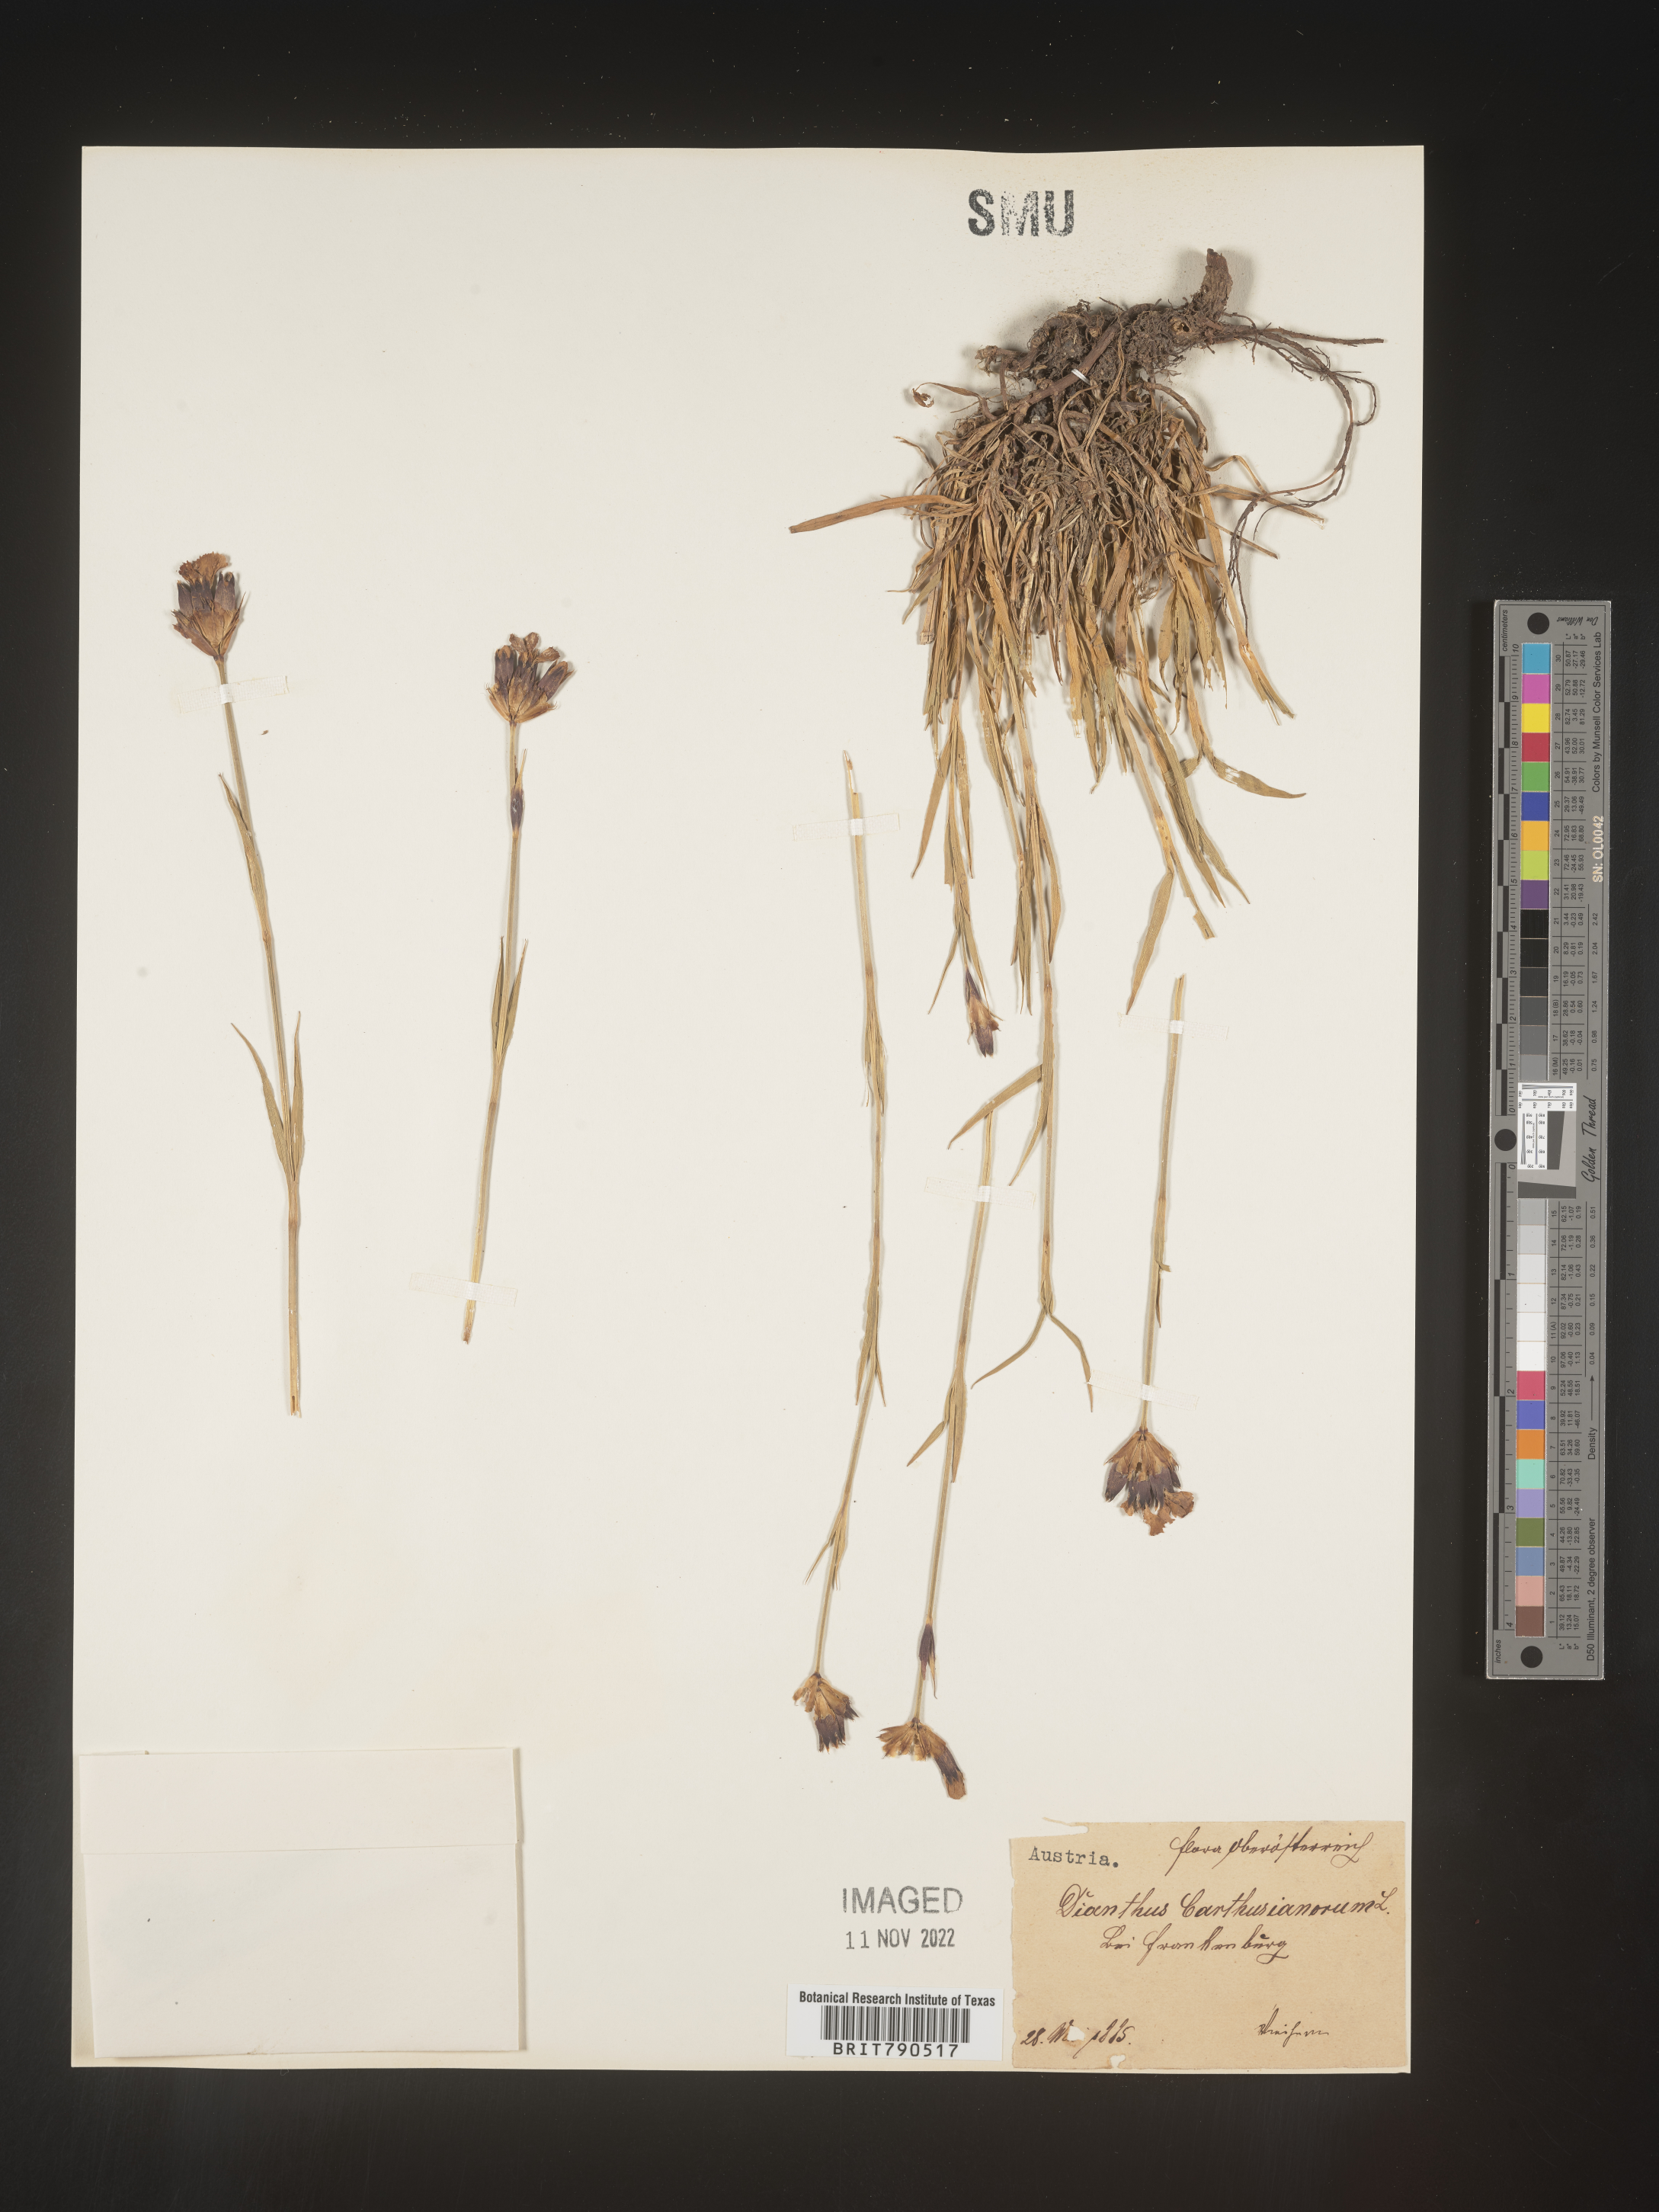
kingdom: Plantae
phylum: Tracheophyta
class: Magnoliopsida
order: Caryophyllales
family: Caryophyllaceae
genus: Dianthus
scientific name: Dianthus carthusianorum
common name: Carthusian pink
